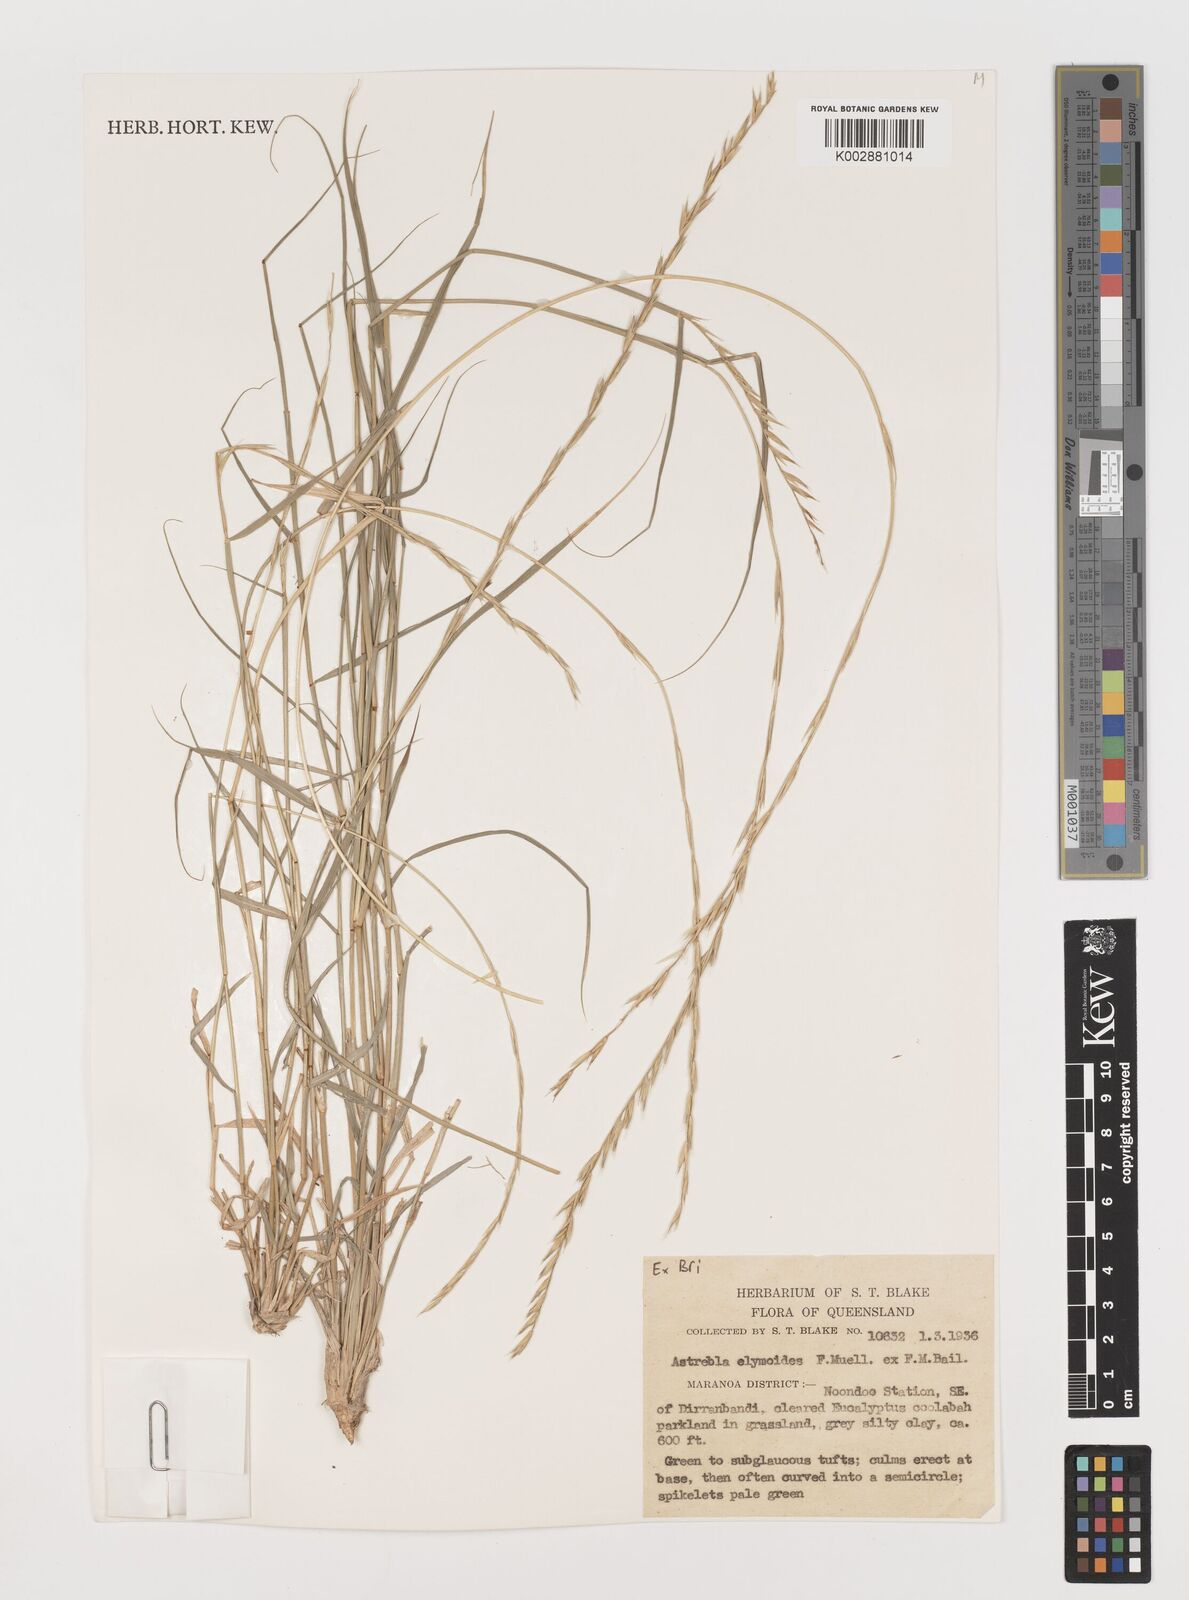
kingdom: Plantae
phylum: Tracheophyta
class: Liliopsida
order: Poales
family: Poaceae
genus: Astrebla
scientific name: Astrebla elymoides
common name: Hoop mitchell grass
